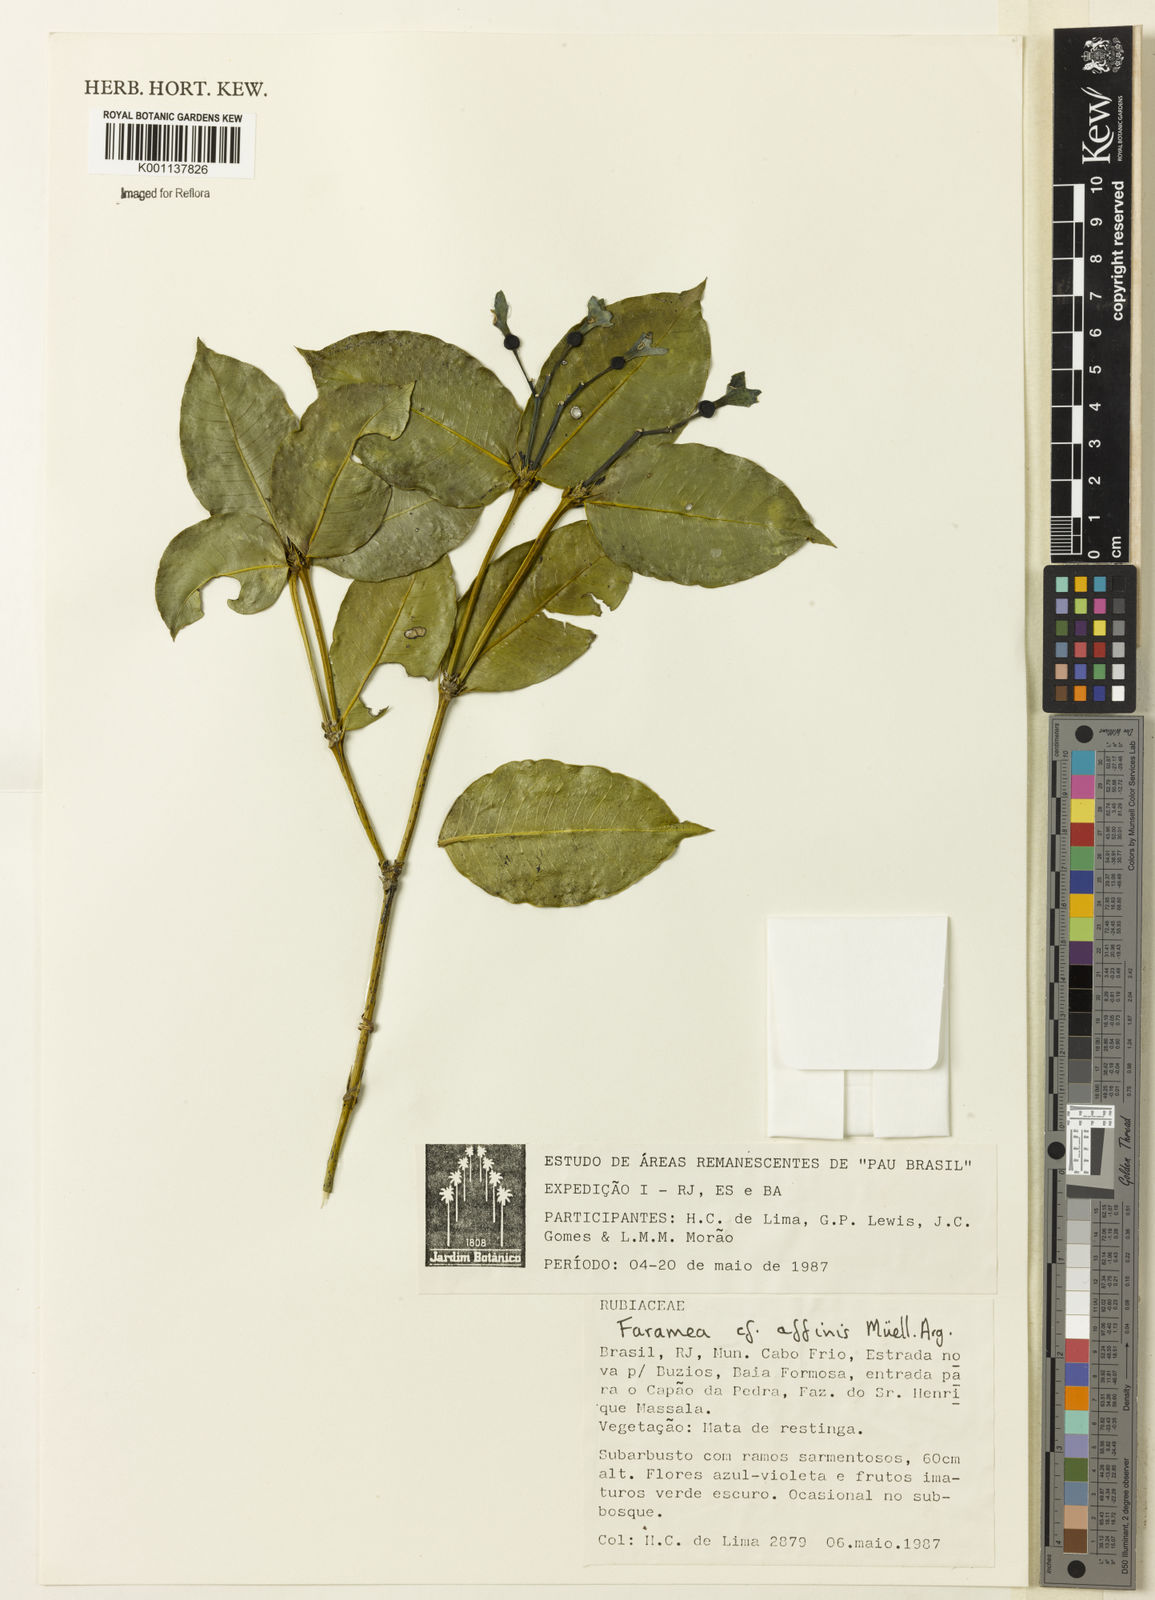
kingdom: Plantae
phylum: Tracheophyta
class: Magnoliopsida
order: Gentianales
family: Rubiaceae
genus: Faramea
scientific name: Faramea
